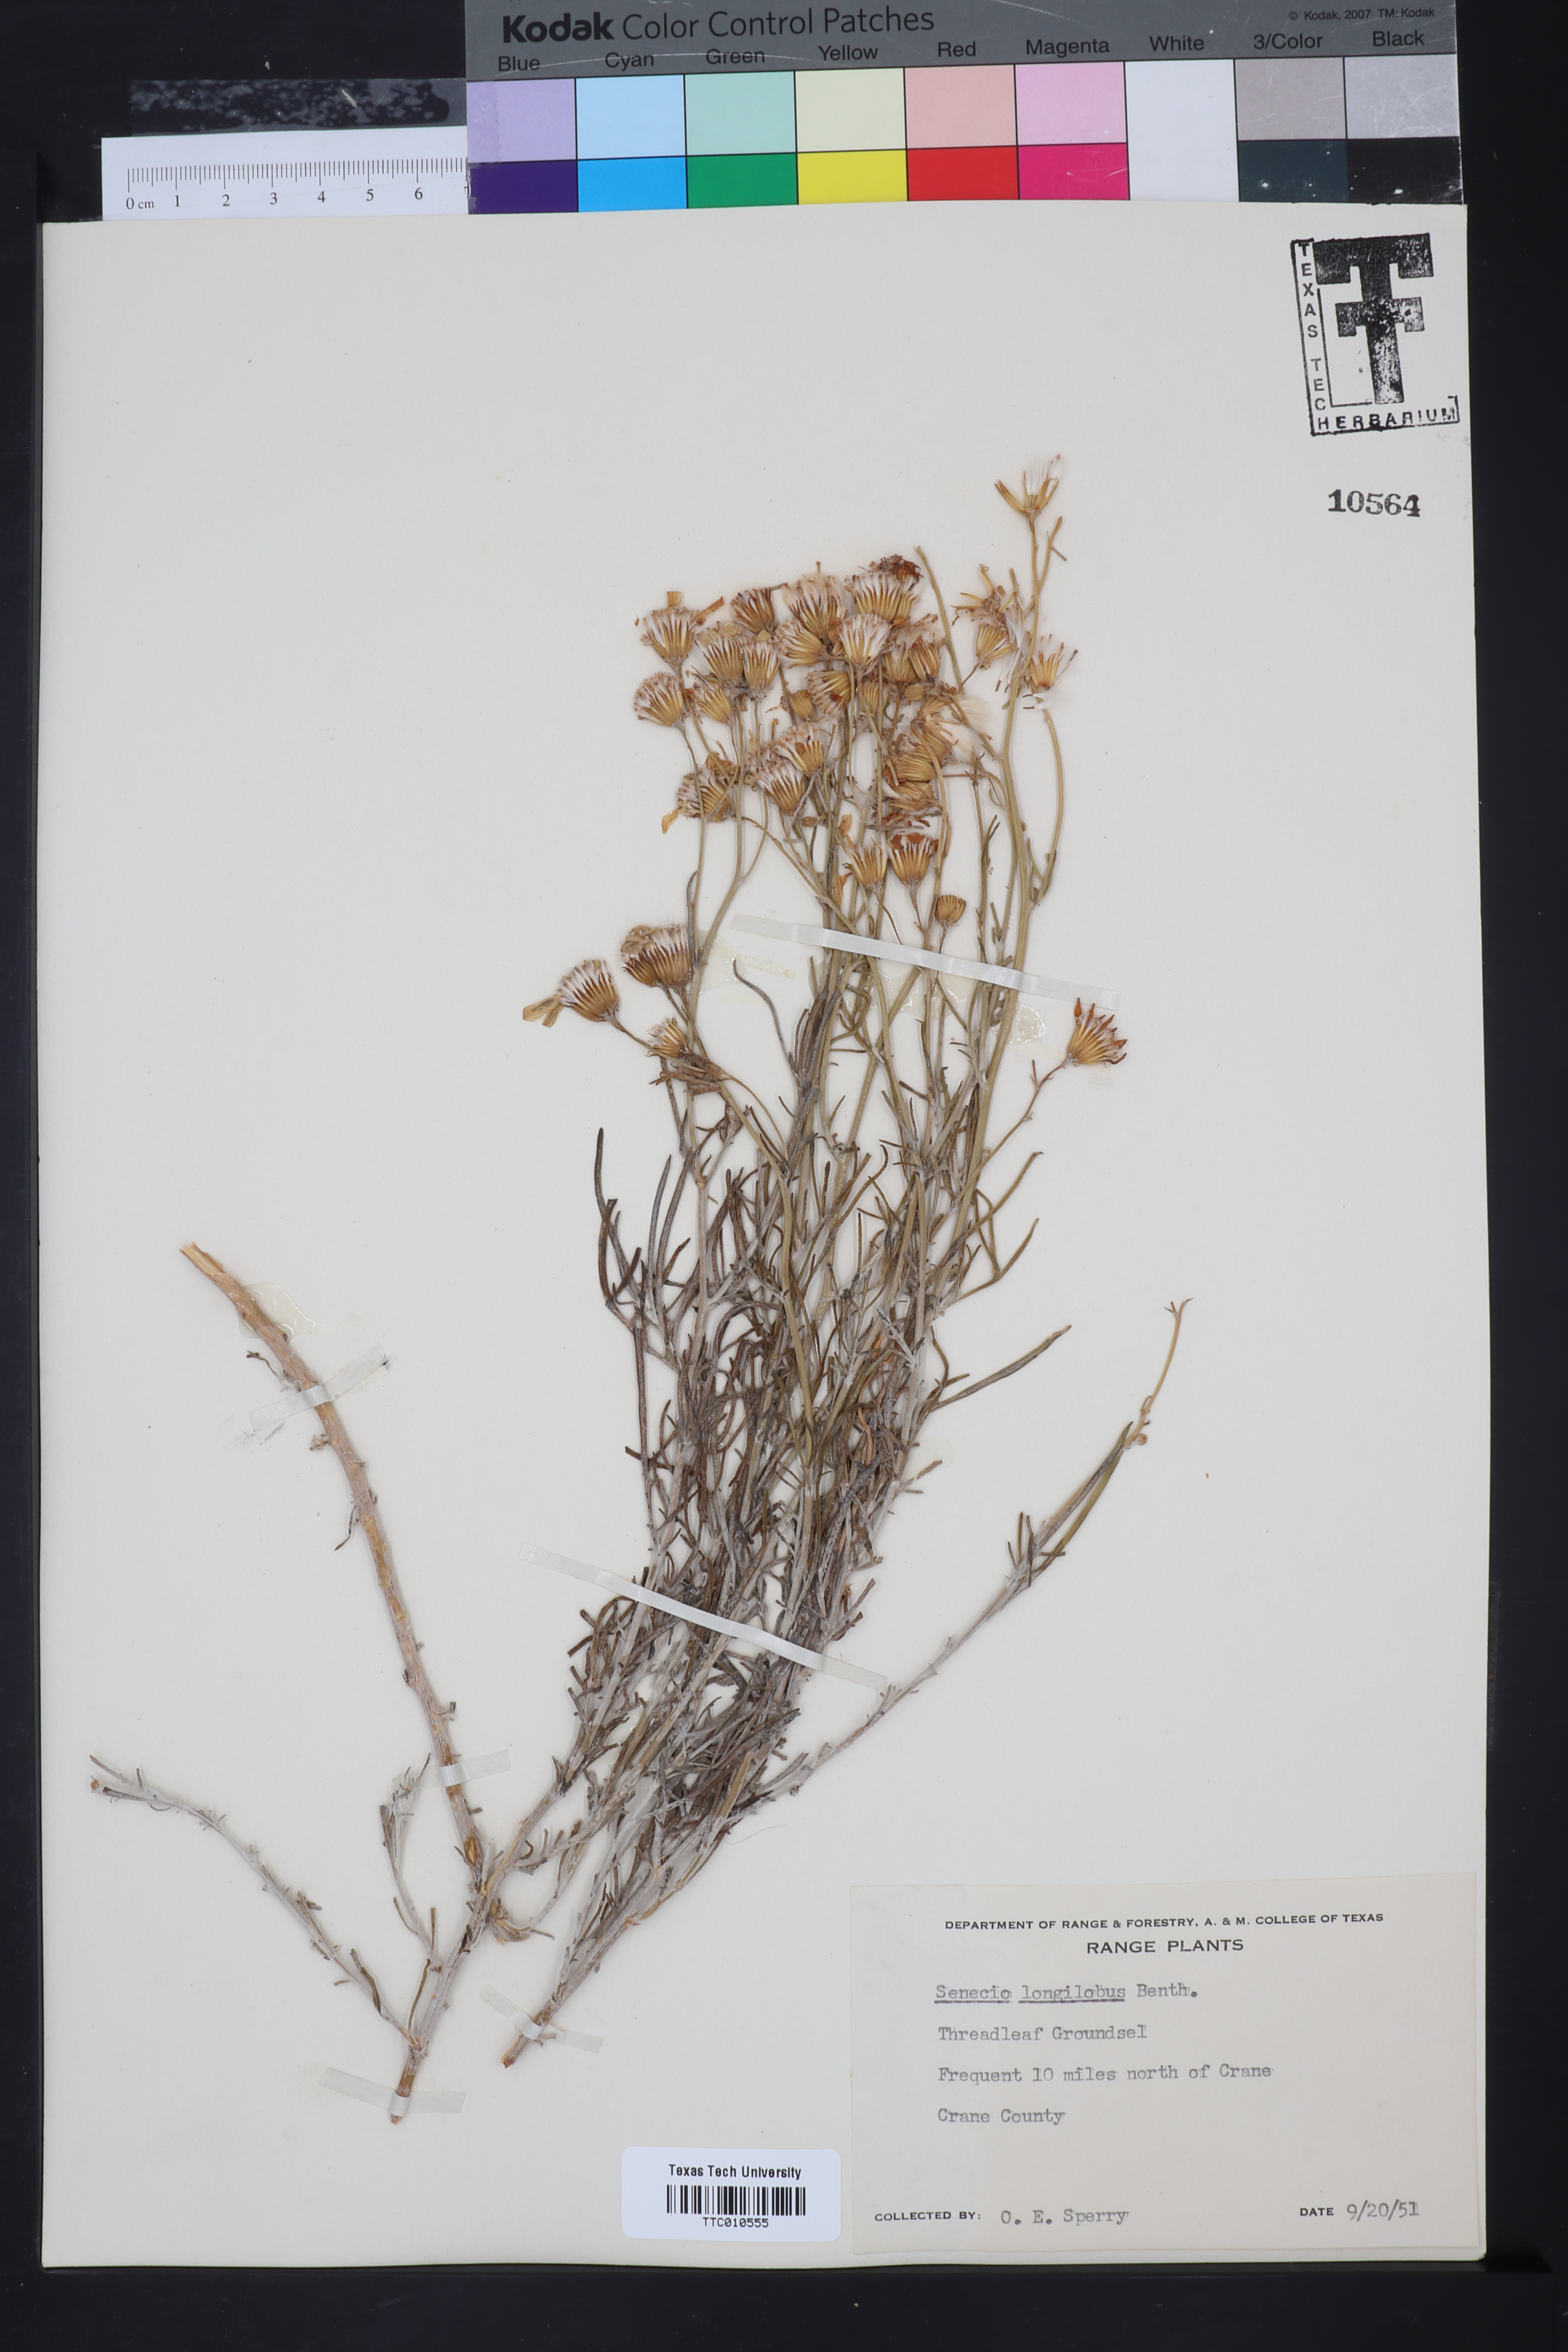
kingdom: Plantae
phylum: Tracheophyta
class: Magnoliopsida
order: Asterales
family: Asteraceae
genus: Senecio
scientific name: Senecio flaccidus
